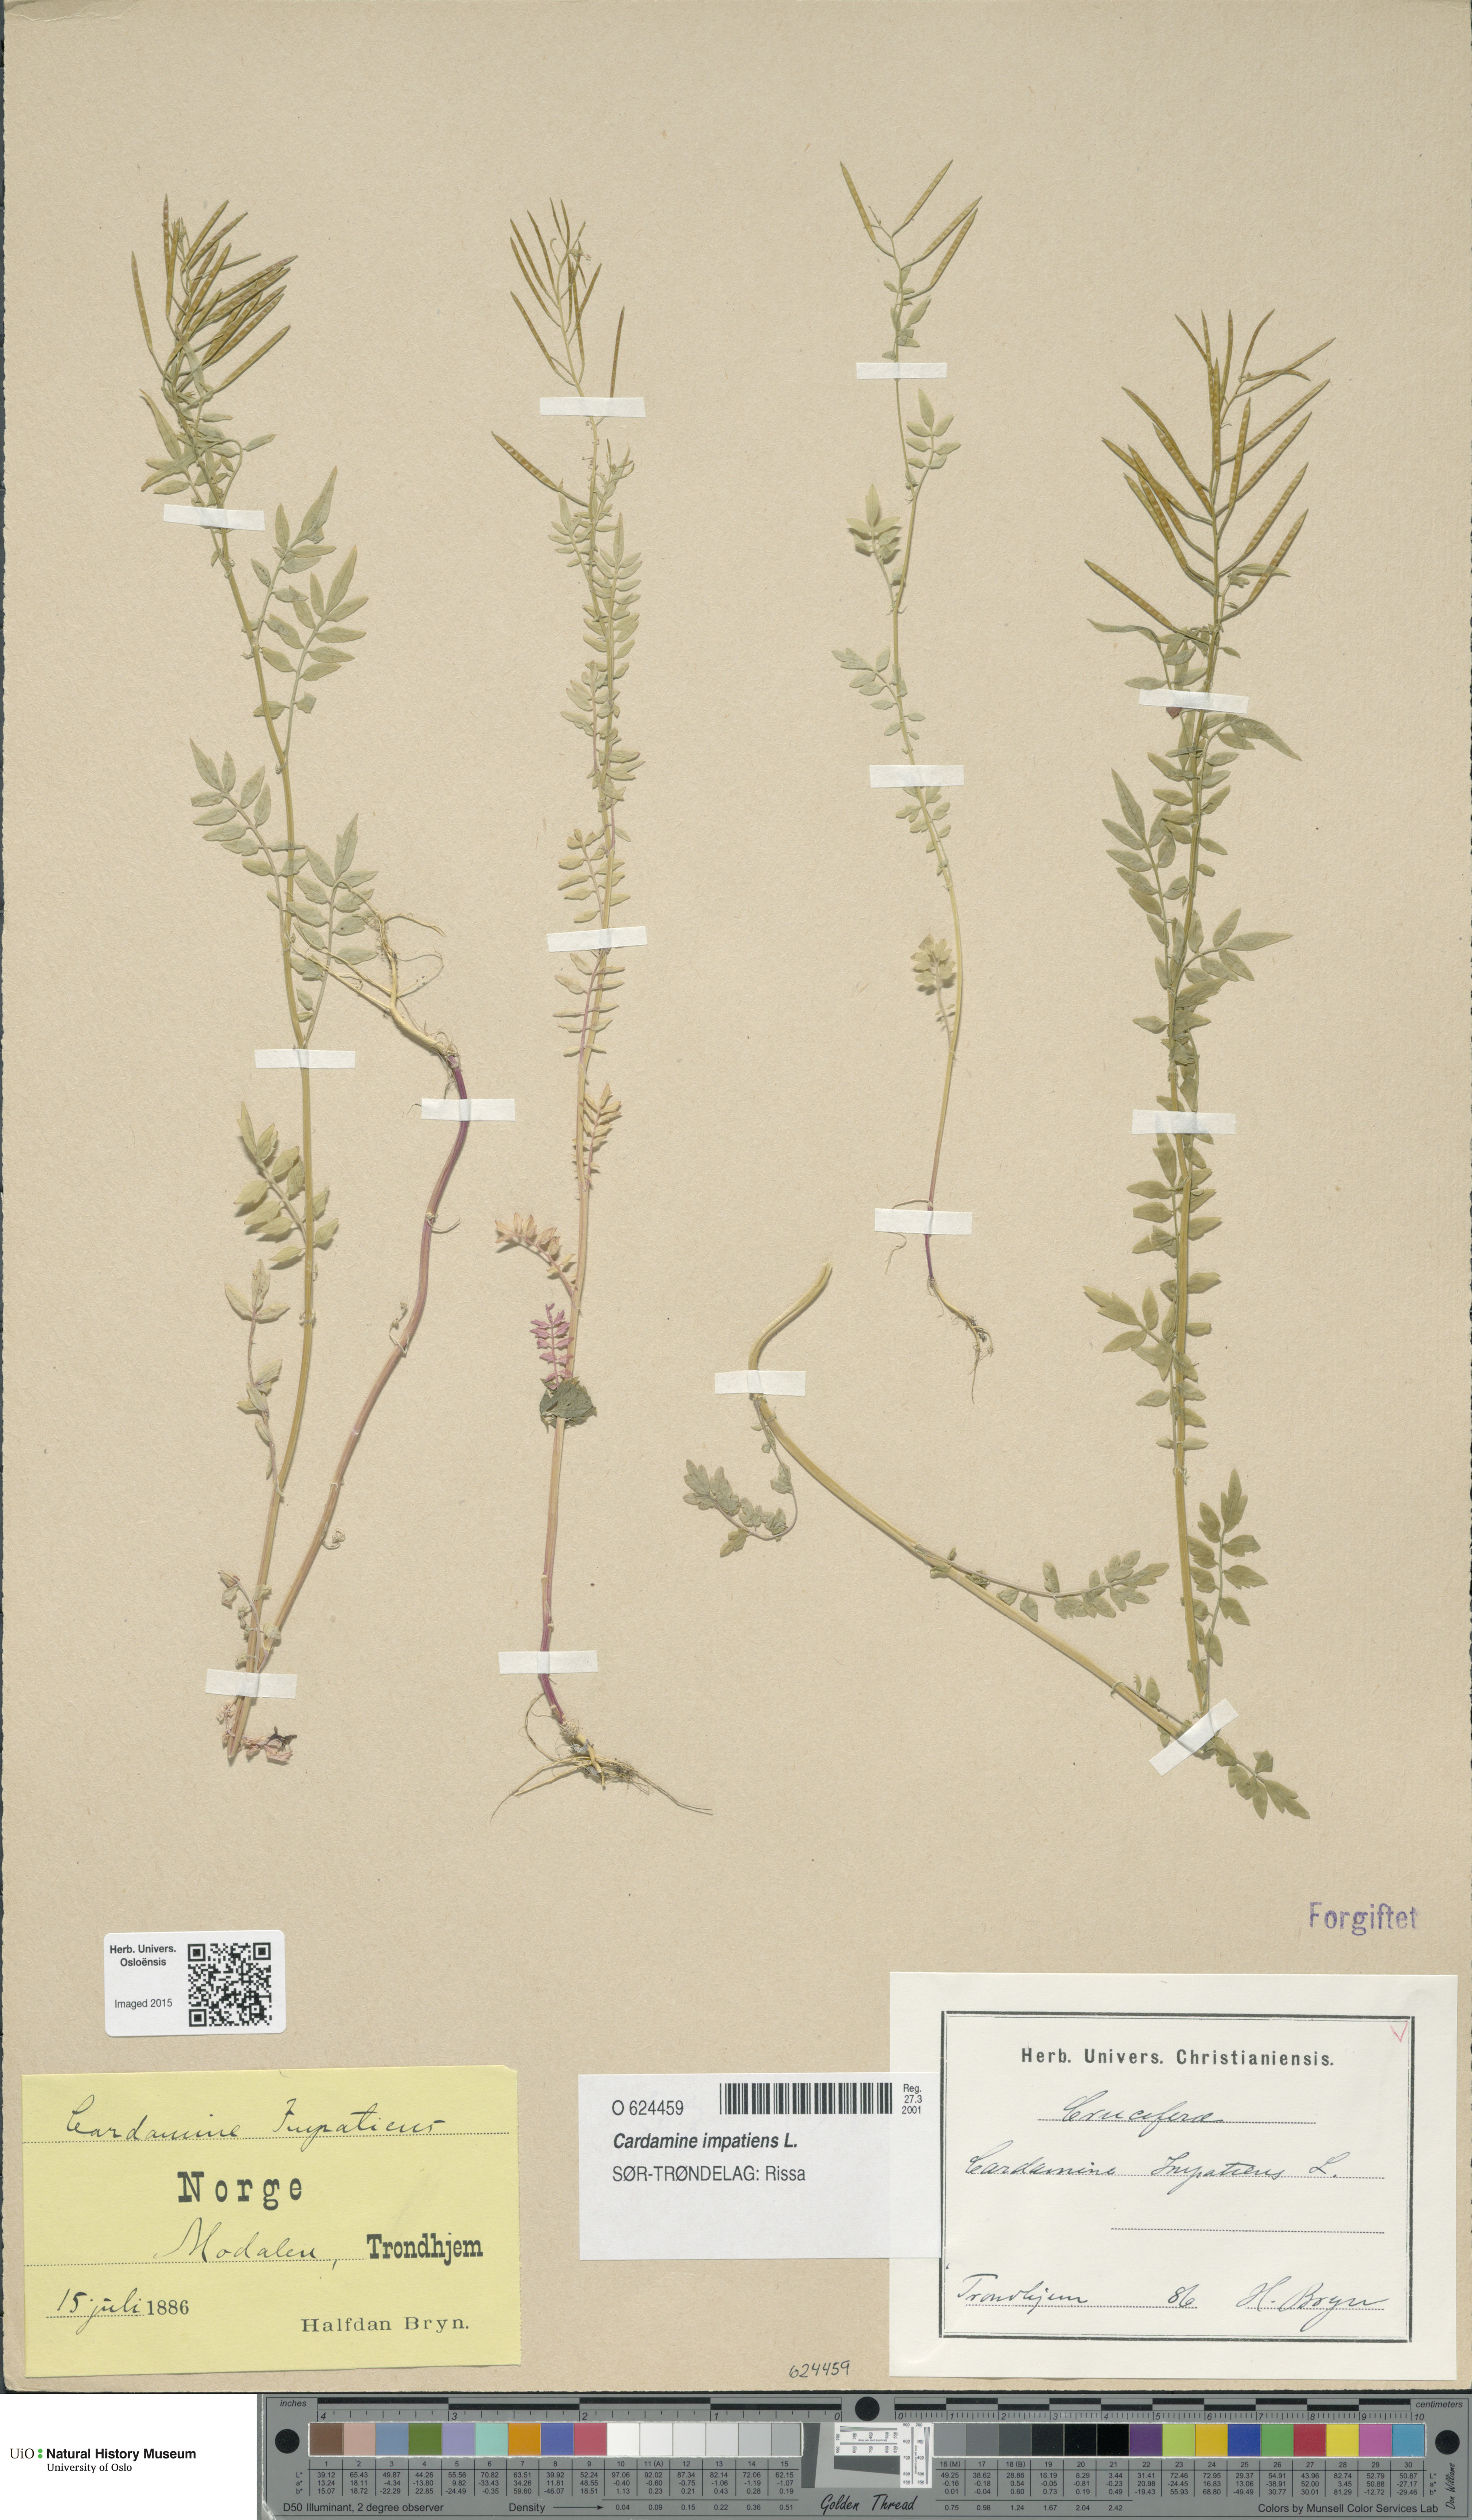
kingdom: Plantae
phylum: Tracheophyta
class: Magnoliopsida
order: Brassicales
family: Brassicaceae
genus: Cardamine
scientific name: Cardamine impatiens
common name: Narrow-leaved bitter-cress
